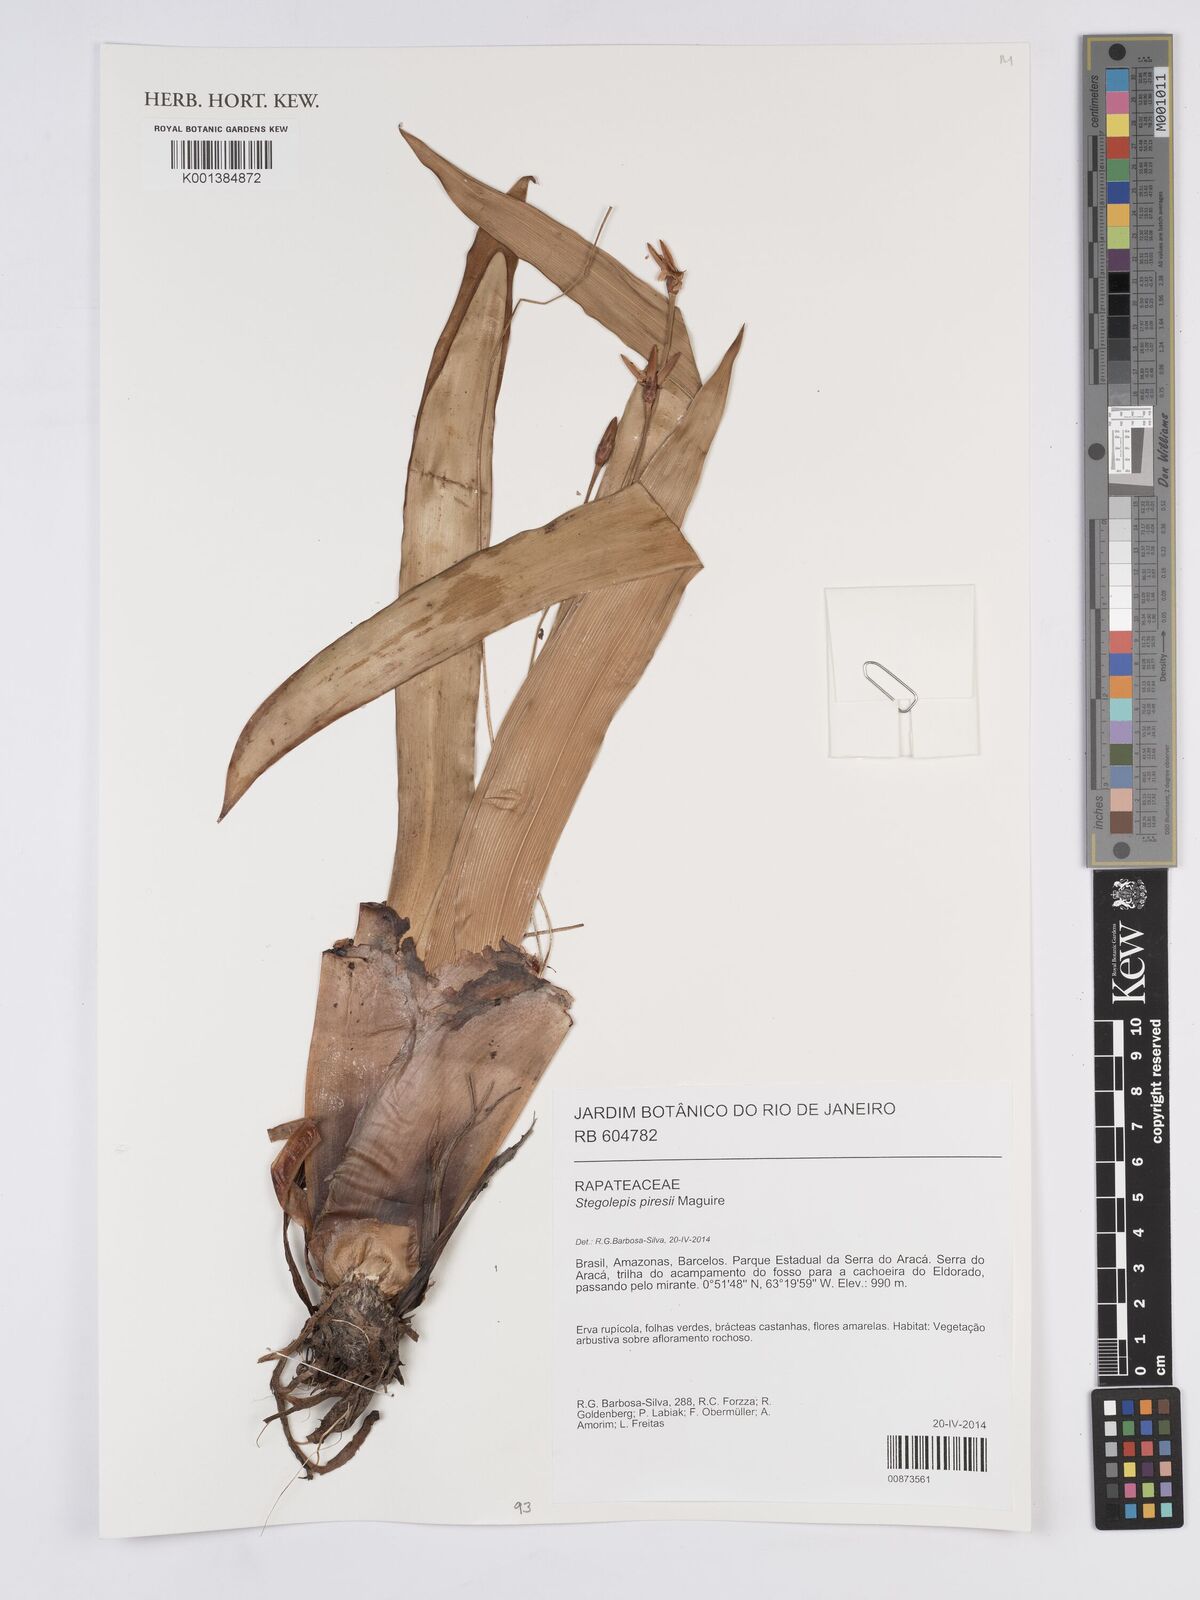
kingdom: Plantae
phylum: Tracheophyta
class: Liliopsida
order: Poales
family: Rapateaceae
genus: Stegolepis
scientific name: Stegolepis hitchcockii
